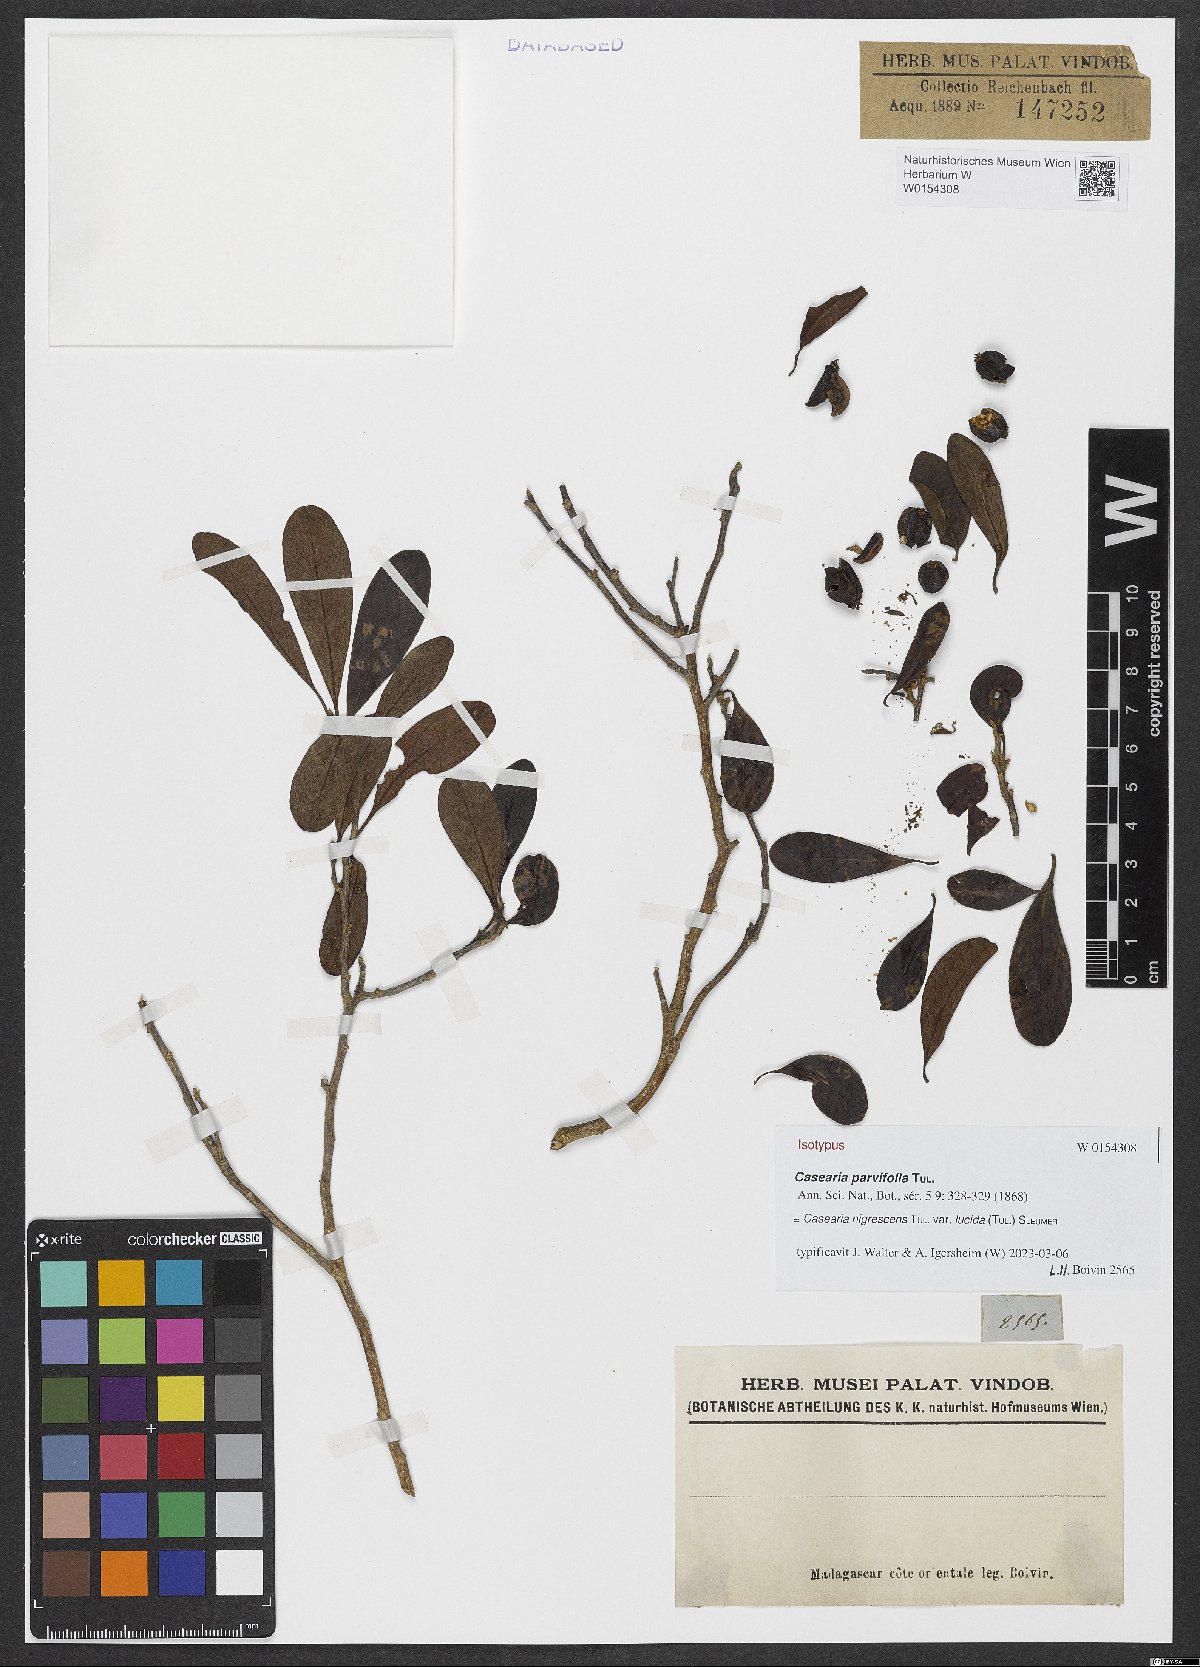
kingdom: Plantae
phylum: Tracheophyta
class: Magnoliopsida
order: Malpighiales
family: Salicaceae
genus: Casearia
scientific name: Casearia tulasneana
